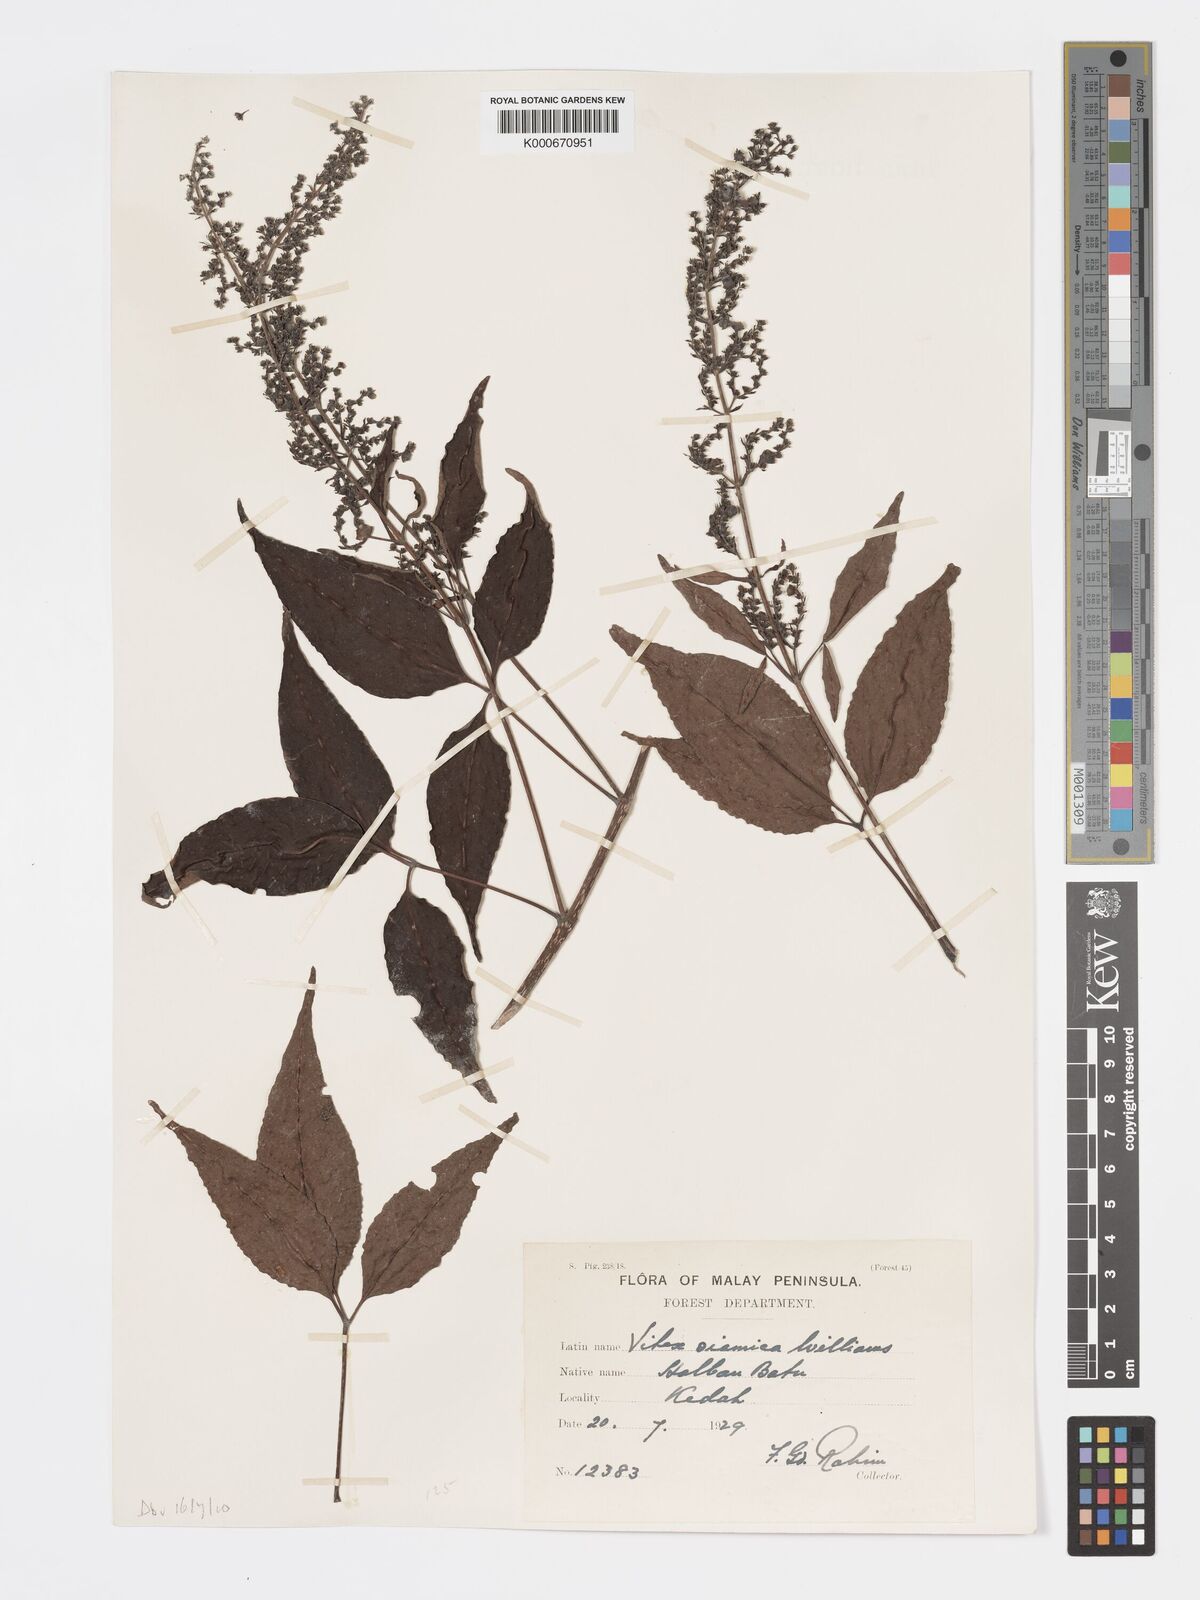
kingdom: Plantae
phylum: Tracheophyta
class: Magnoliopsida
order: Lamiales
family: Lamiaceae
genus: Vitex
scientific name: Vitex siamica
